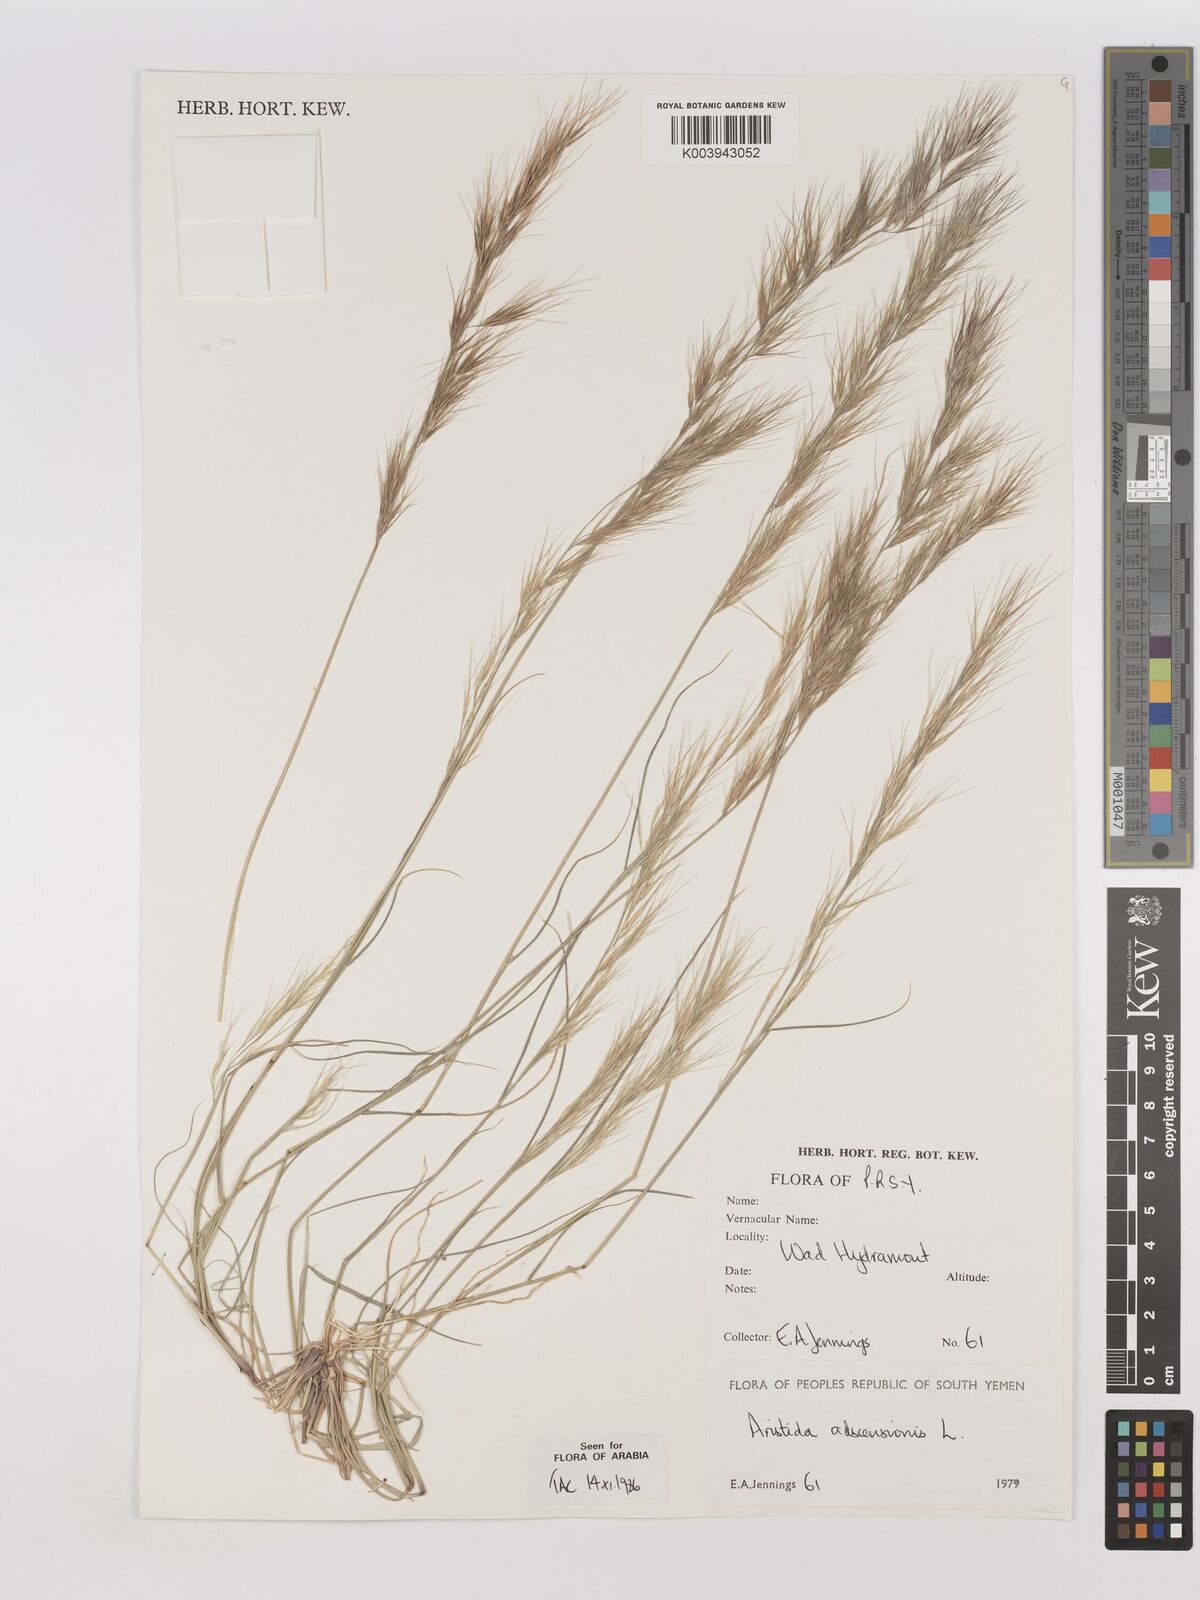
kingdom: Plantae
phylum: Tracheophyta
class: Liliopsida
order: Poales
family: Poaceae
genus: Aristida
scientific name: Aristida adscensionis
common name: Sixweeks threeawn
